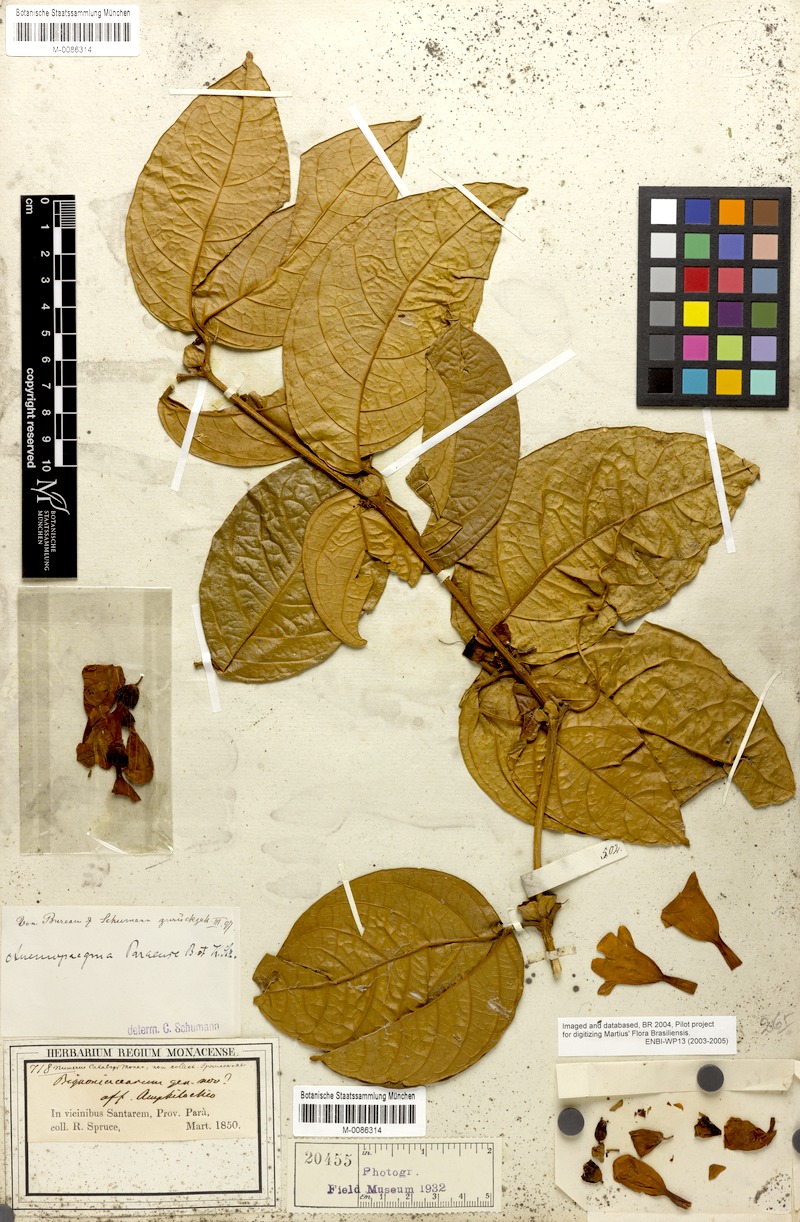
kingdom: Plantae
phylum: Tracheophyta
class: Magnoliopsida
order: Lamiales
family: Bignoniaceae
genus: Anemopaegma
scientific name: Anemopaegma paraense
